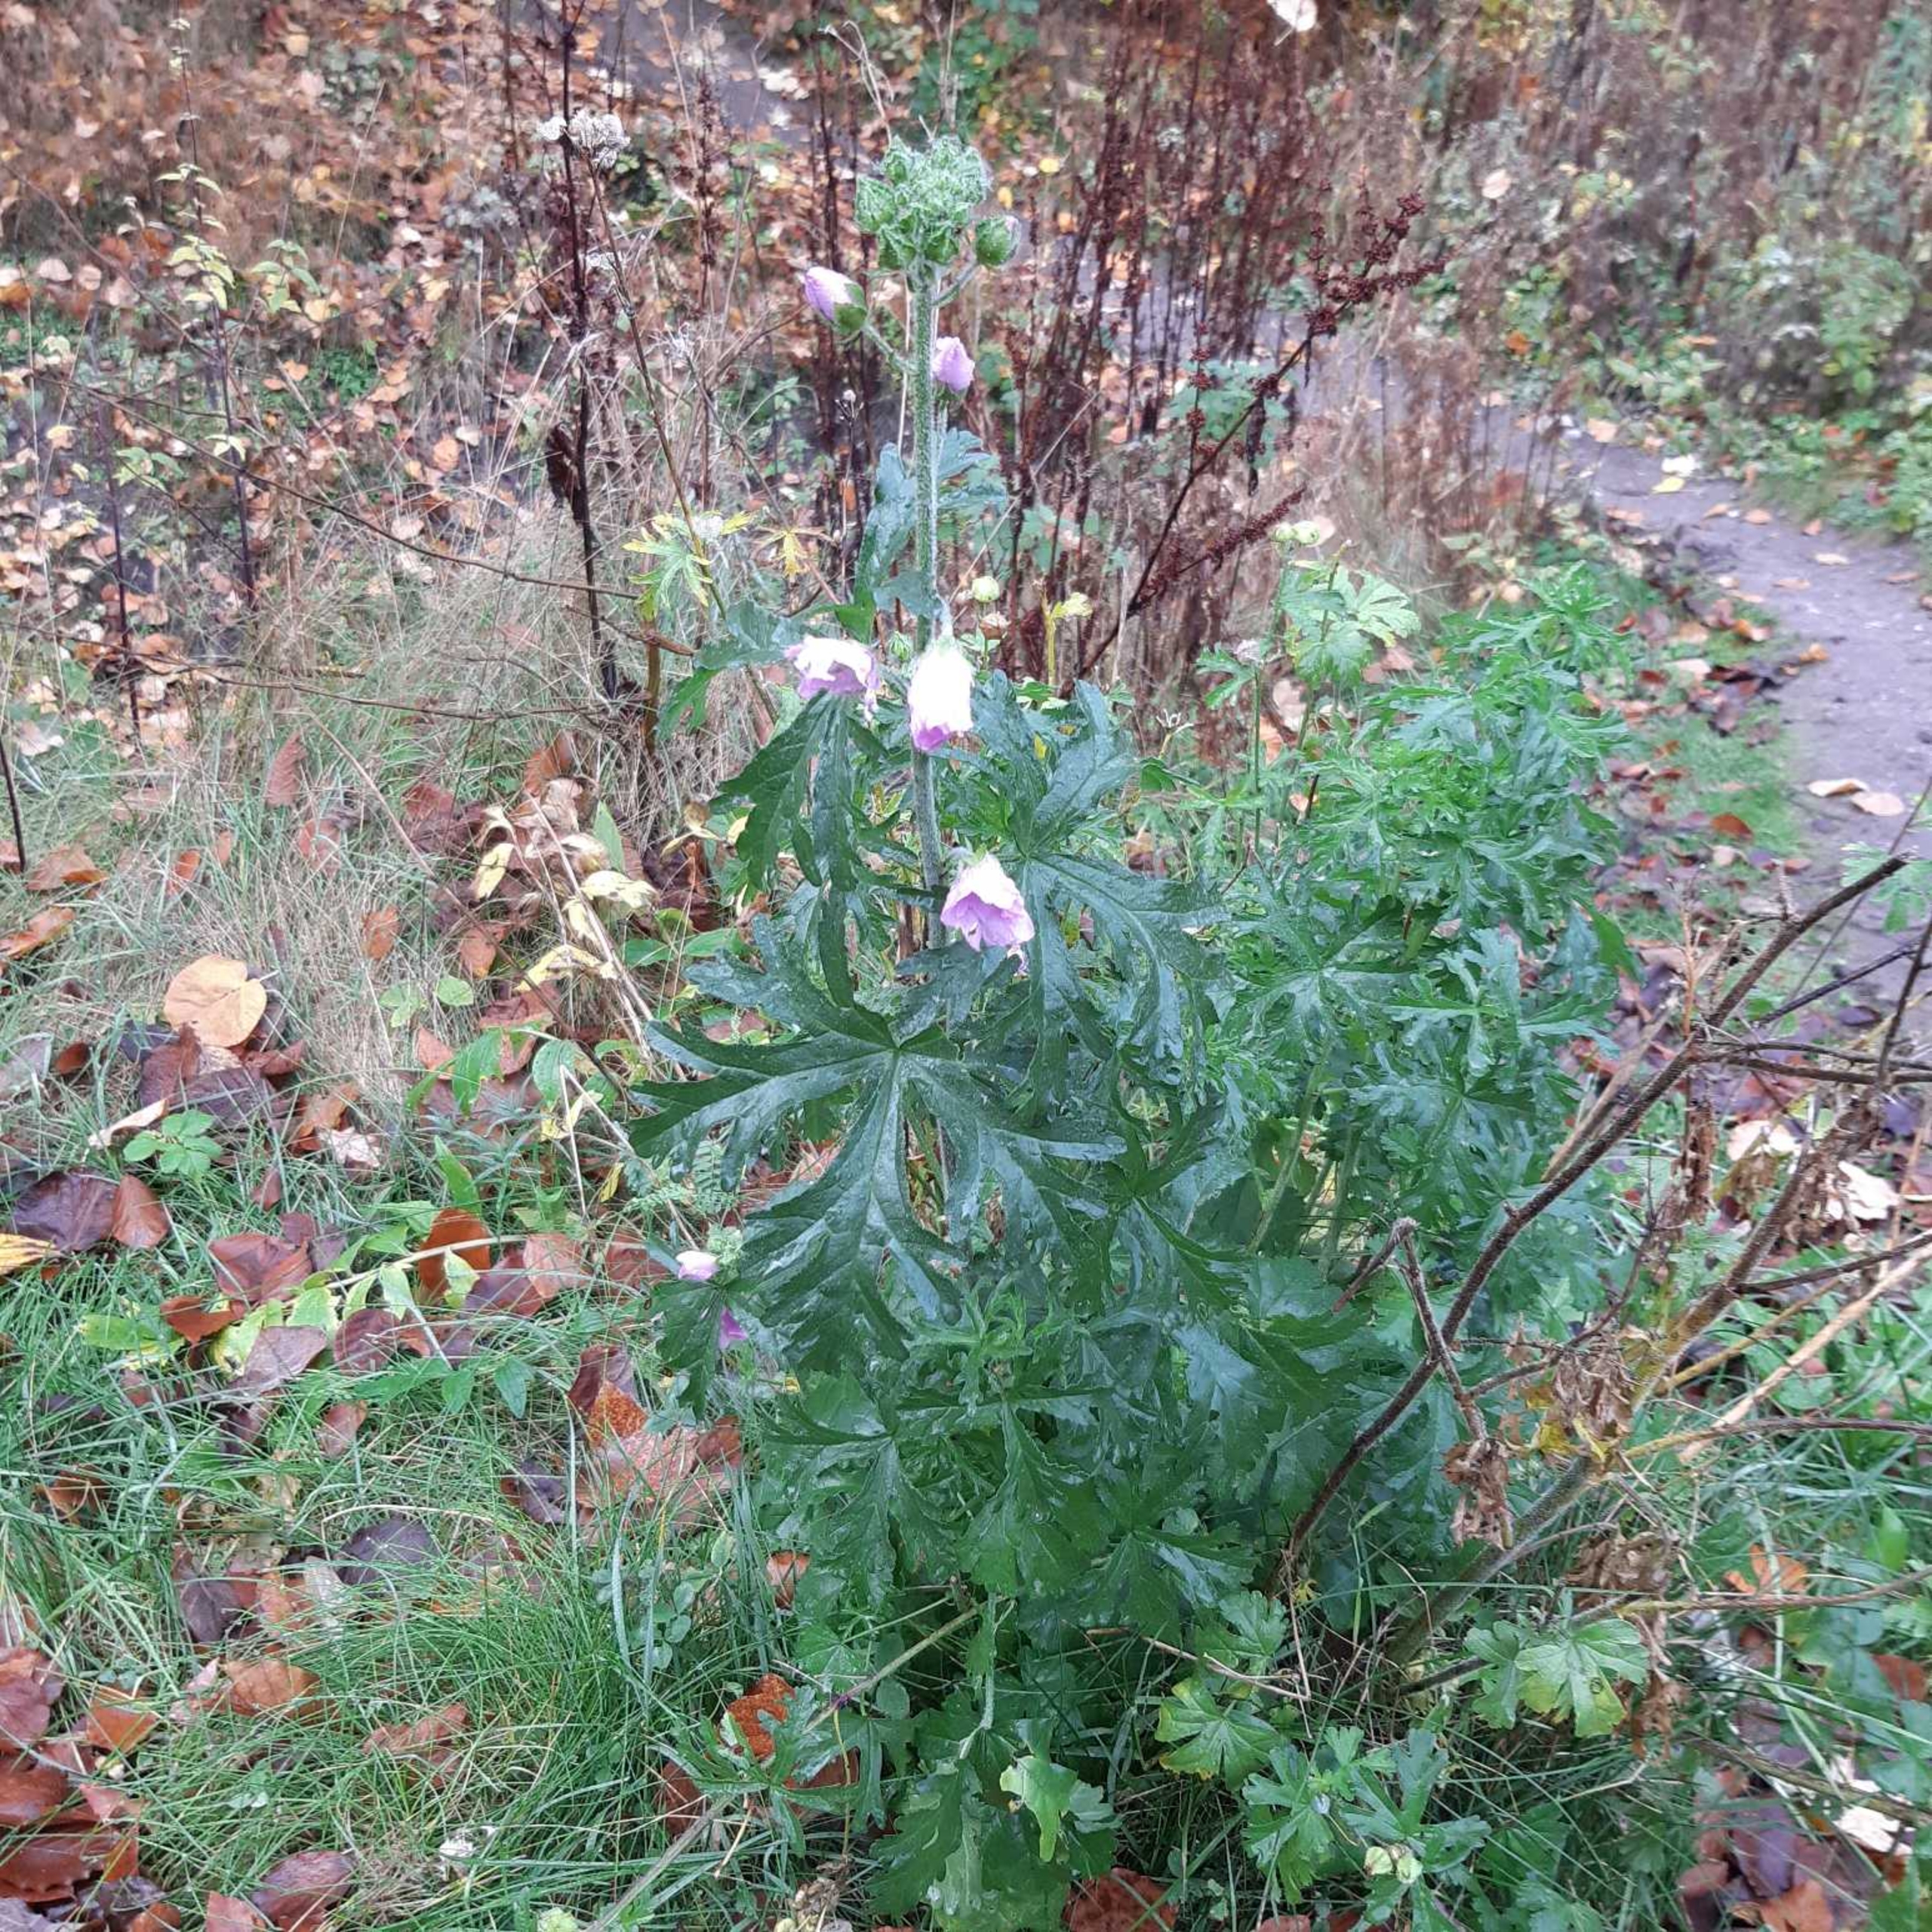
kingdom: Plantae
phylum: Tracheophyta
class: Magnoliopsida
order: Malvales
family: Malvaceae
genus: Malva
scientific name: Malva moschata
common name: Moskus-katost
